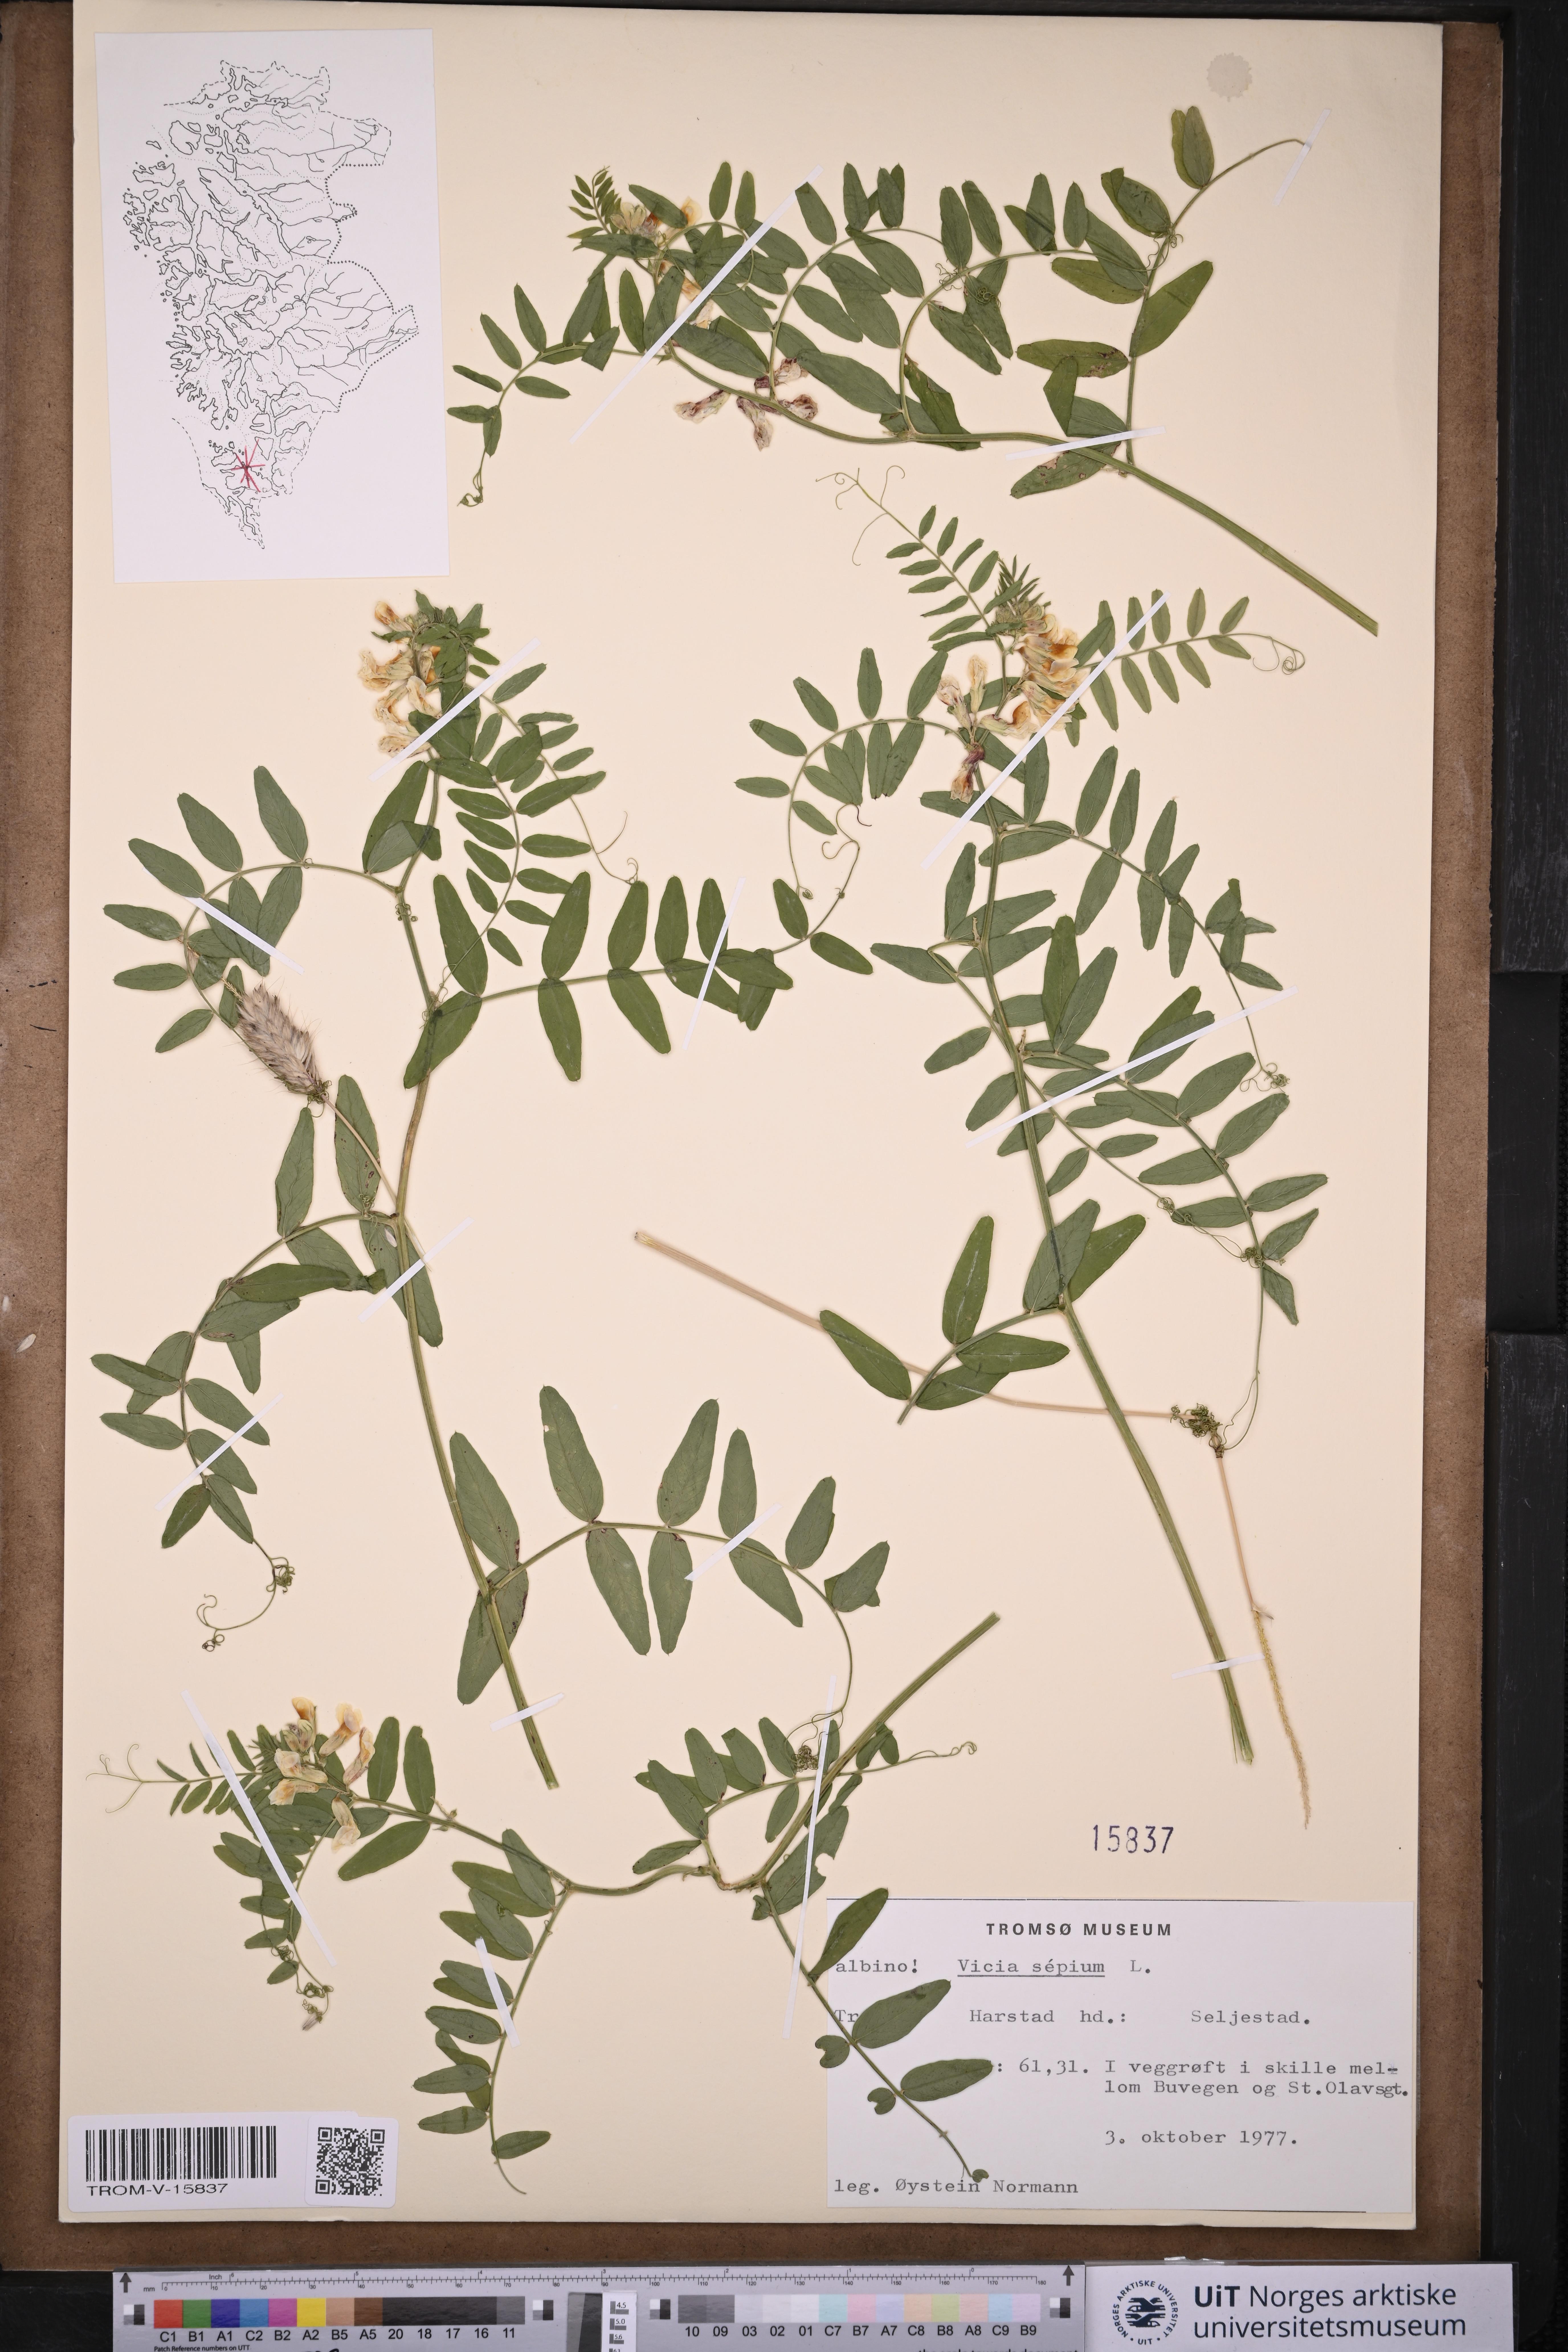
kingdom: Plantae
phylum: Tracheophyta
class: Magnoliopsida
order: Fabales
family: Fabaceae
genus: Vicia
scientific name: Vicia sepium
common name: Bush vetch
